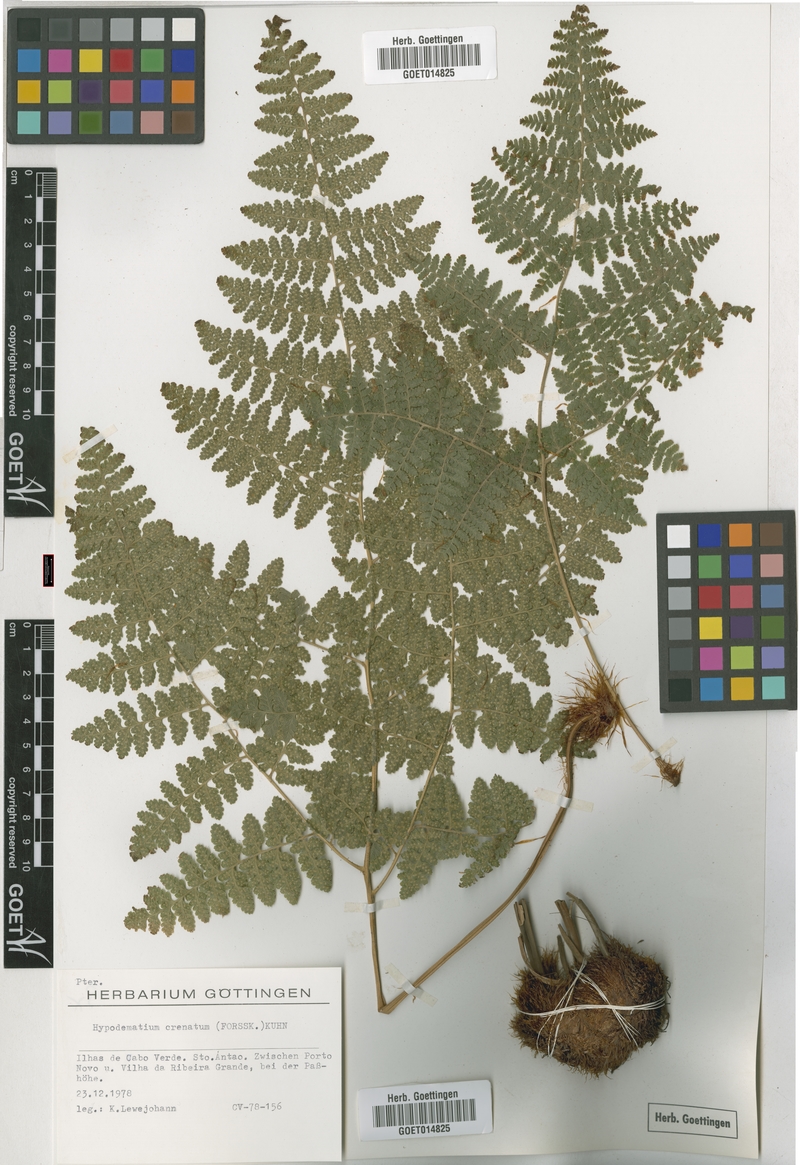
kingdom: Plantae
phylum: Tracheophyta
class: Polypodiopsida
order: Polypodiales
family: Hypodematiaceae
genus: Hypodematium
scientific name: Hypodematium chrysolepis
